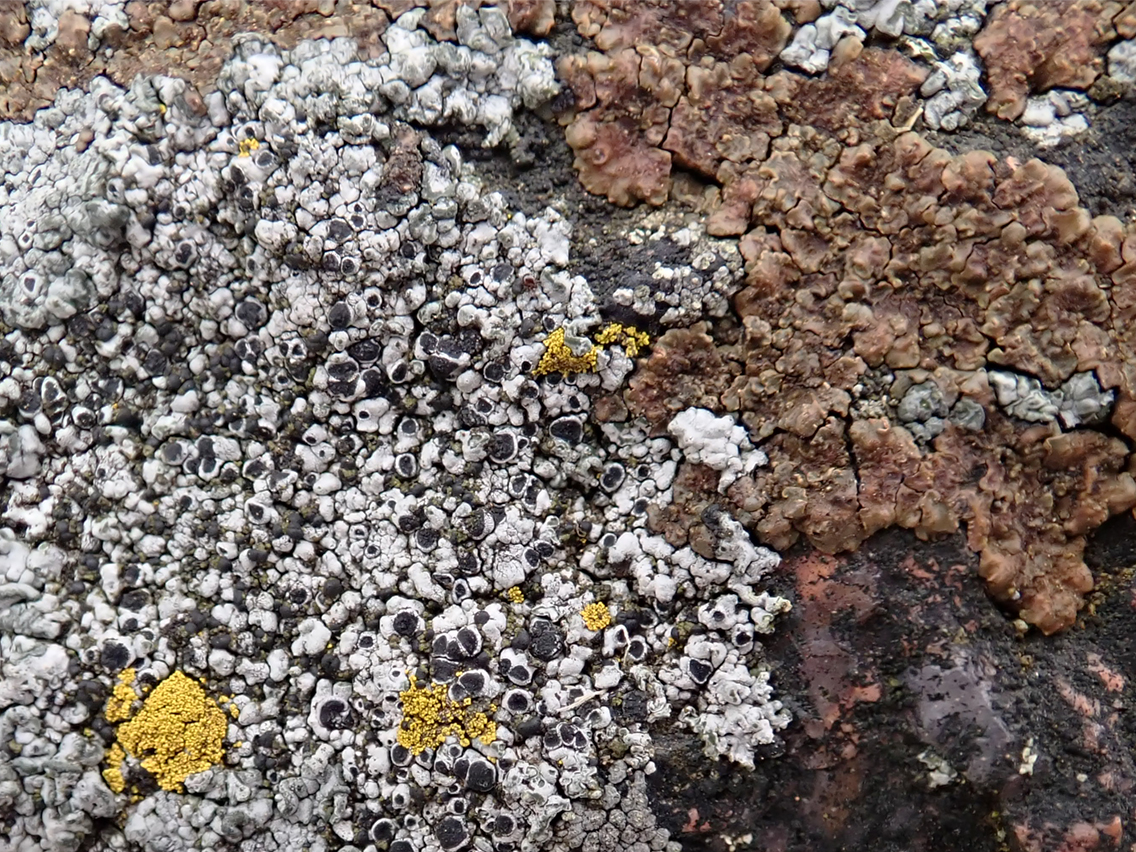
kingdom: Fungi
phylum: Ascomycota
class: Lecanoromycetes
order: Acarosporales
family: Acarosporaceae
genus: Acarospora
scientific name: Acarospora fuscata
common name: brun småsporelav
